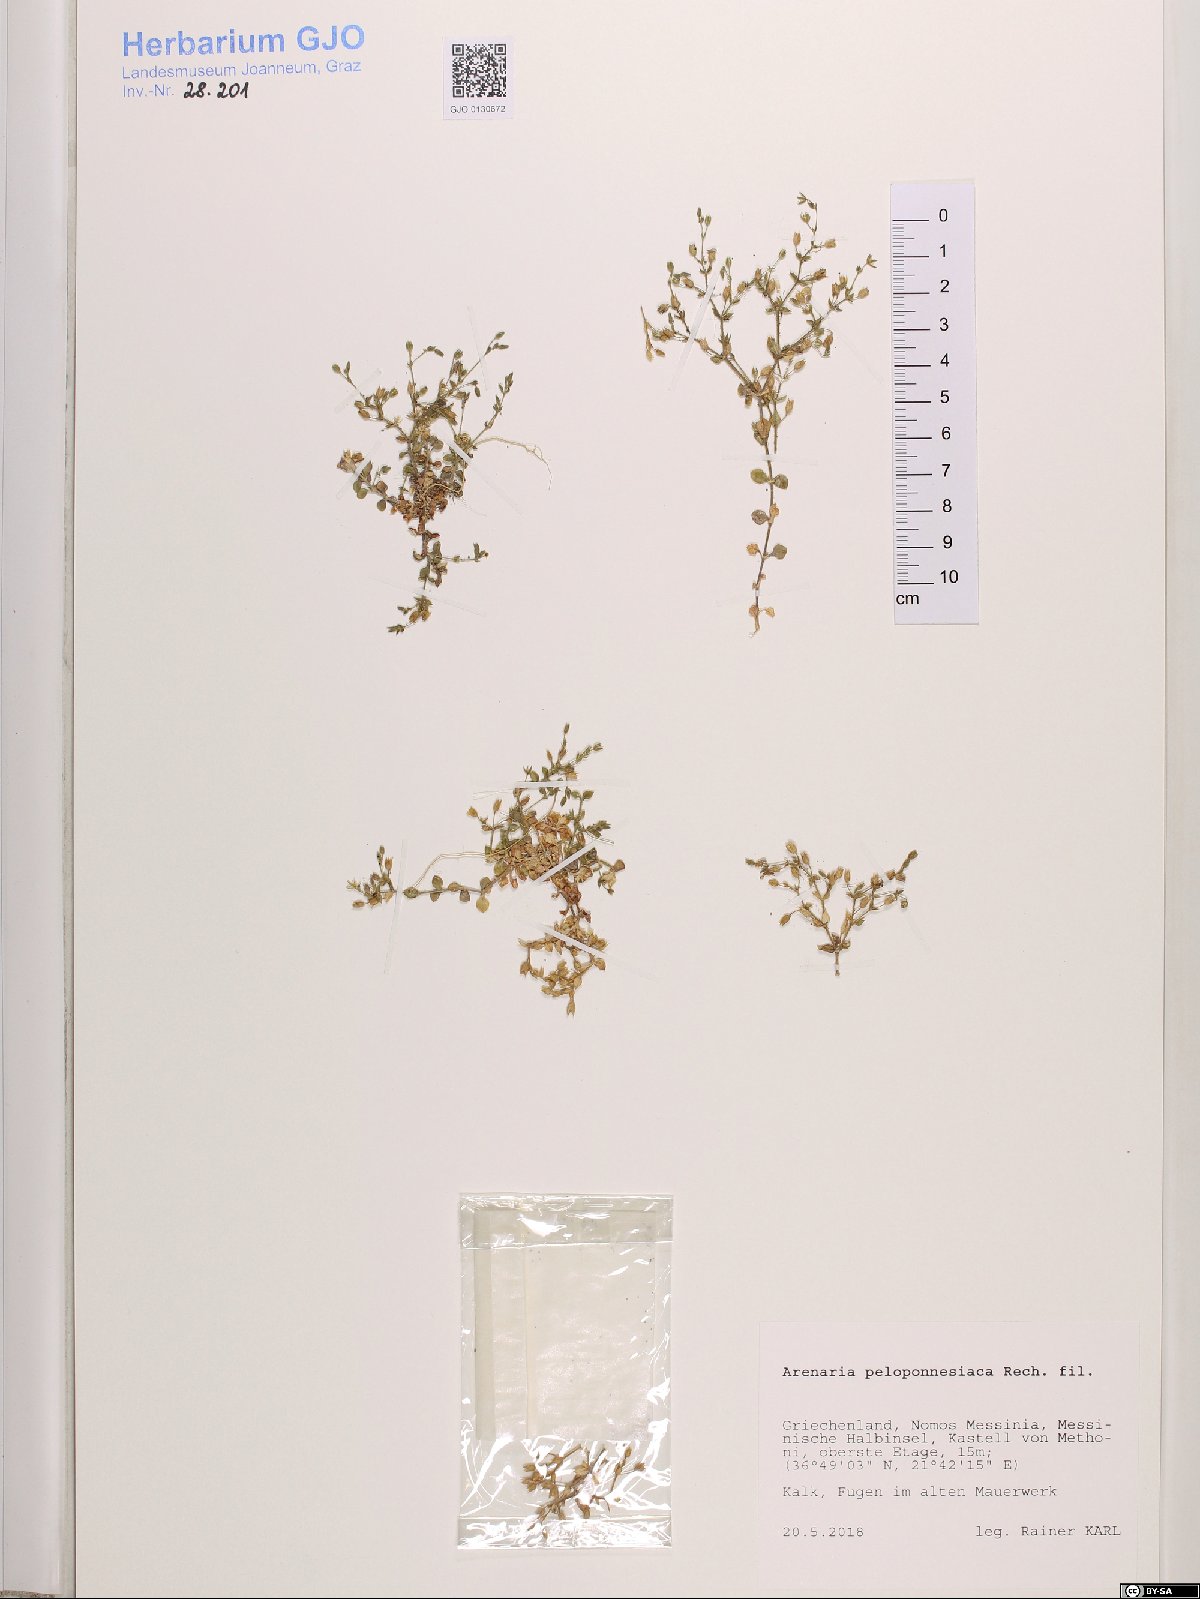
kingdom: Plantae
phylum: Tracheophyta
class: Magnoliopsida
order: Caryophyllales
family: Caryophyllaceae
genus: Arenaria
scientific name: Arenaria leptoclados
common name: Thyme-leaved sandwort
